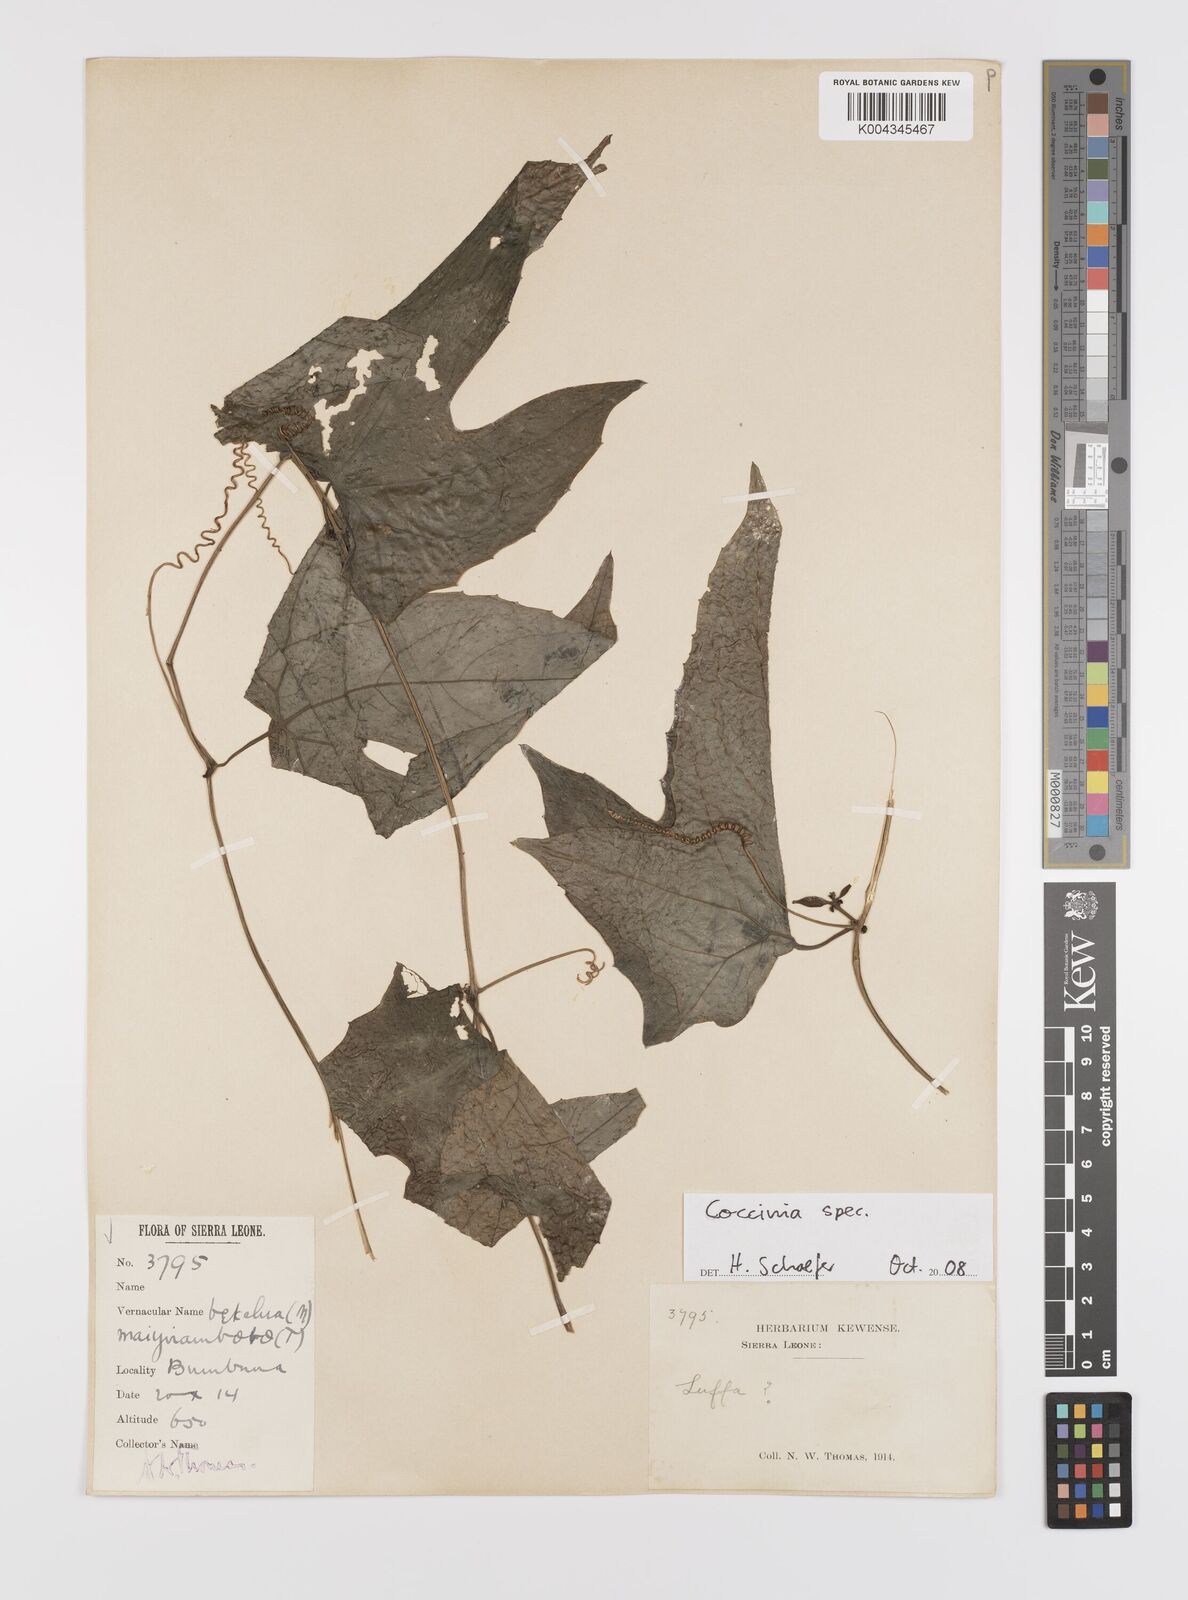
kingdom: Plantae
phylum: Tracheophyta
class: Magnoliopsida
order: Cucurbitales
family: Cucurbitaceae
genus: Coccinia
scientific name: Coccinia
